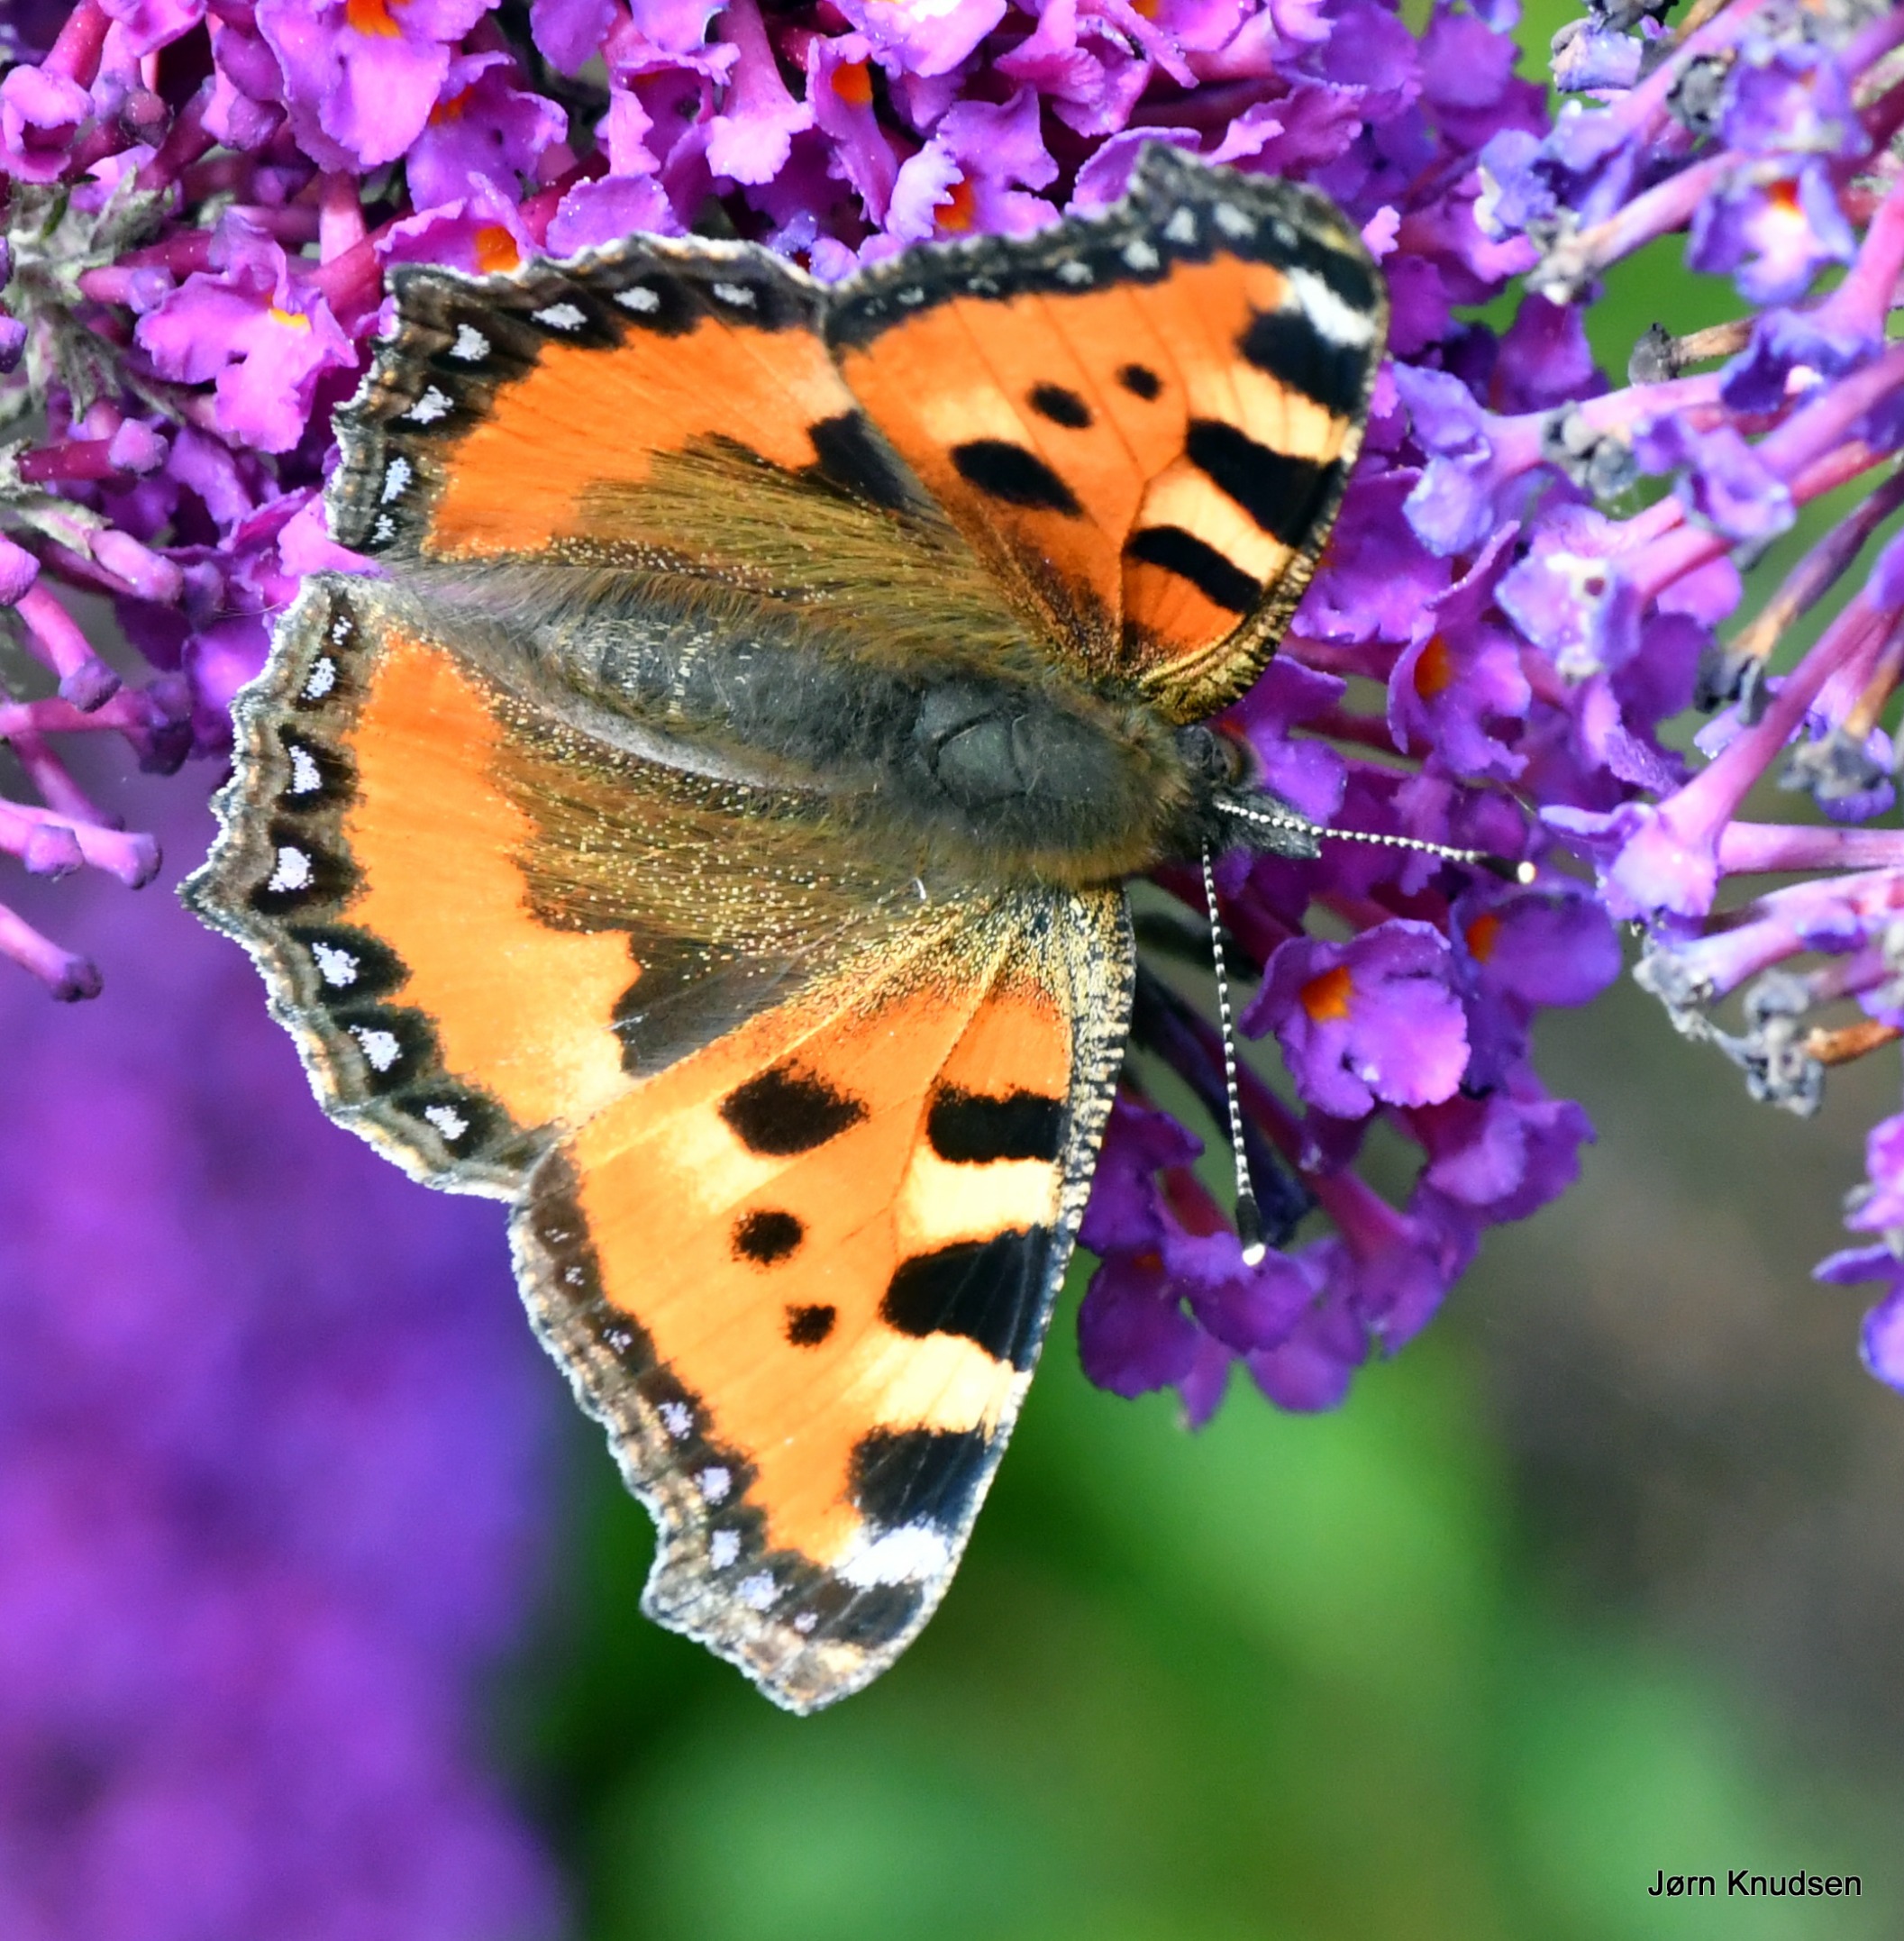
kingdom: Animalia
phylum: Arthropoda
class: Insecta
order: Lepidoptera
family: Nymphalidae
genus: Aglais
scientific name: Aglais urticae
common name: Nældens takvinge
